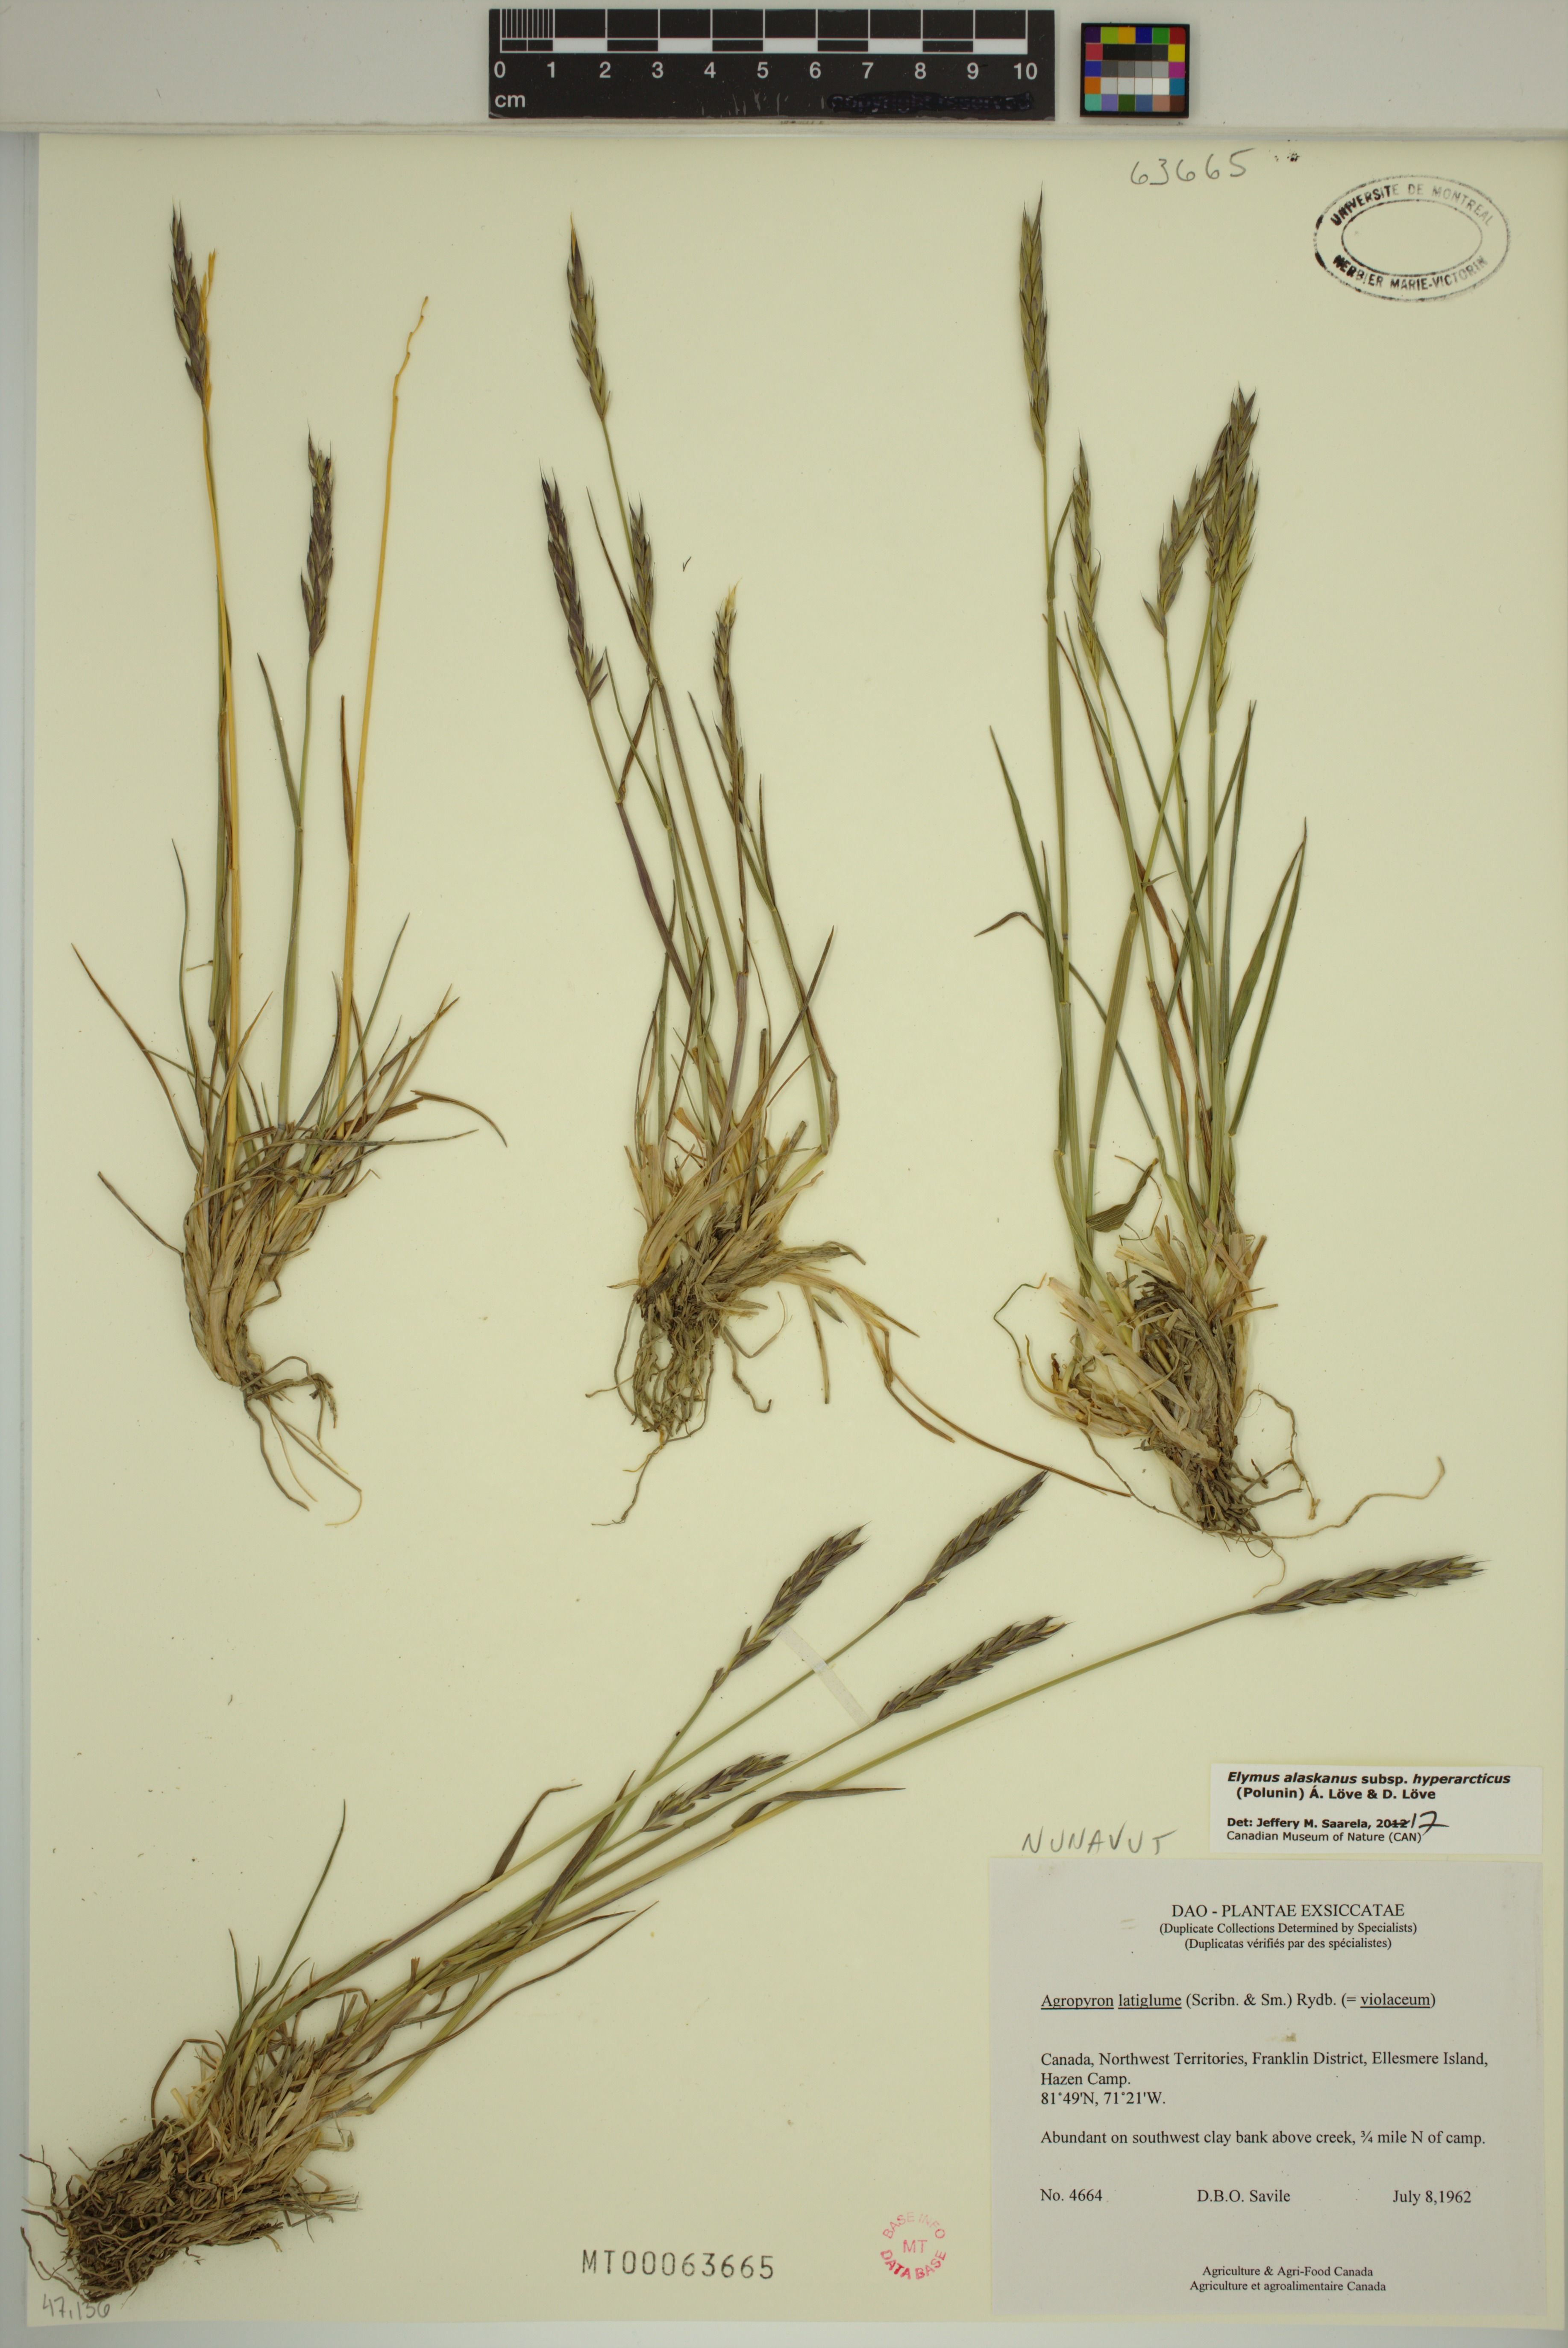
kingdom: Plantae
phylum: Tracheophyta
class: Liliopsida
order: Poales
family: Poaceae
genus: Elymus
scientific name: Elymus sajanensis
